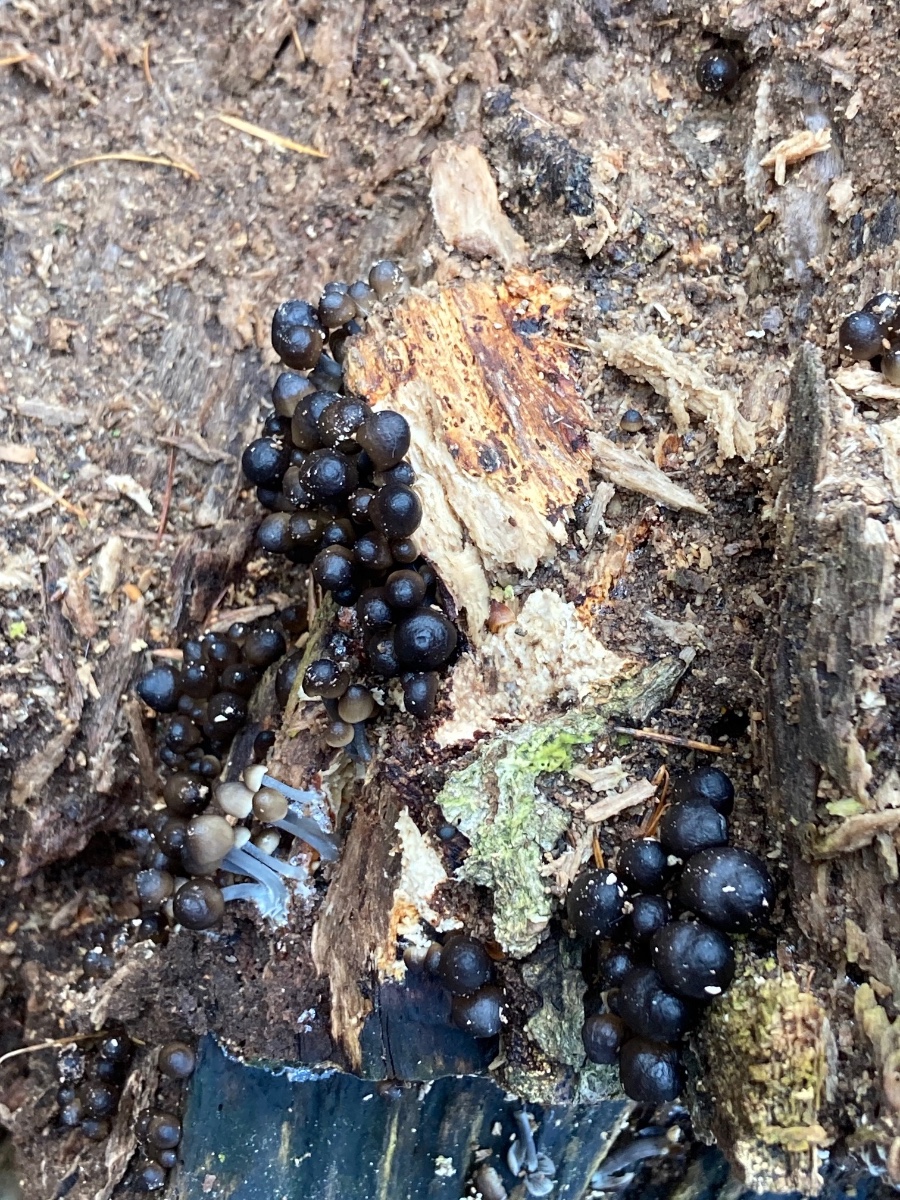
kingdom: Fungi
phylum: Basidiomycota
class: Agaricomycetes
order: Agaricales
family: Mycenaceae
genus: Mycena
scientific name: Mycena tintinnabulum
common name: vinter-huesvamp
